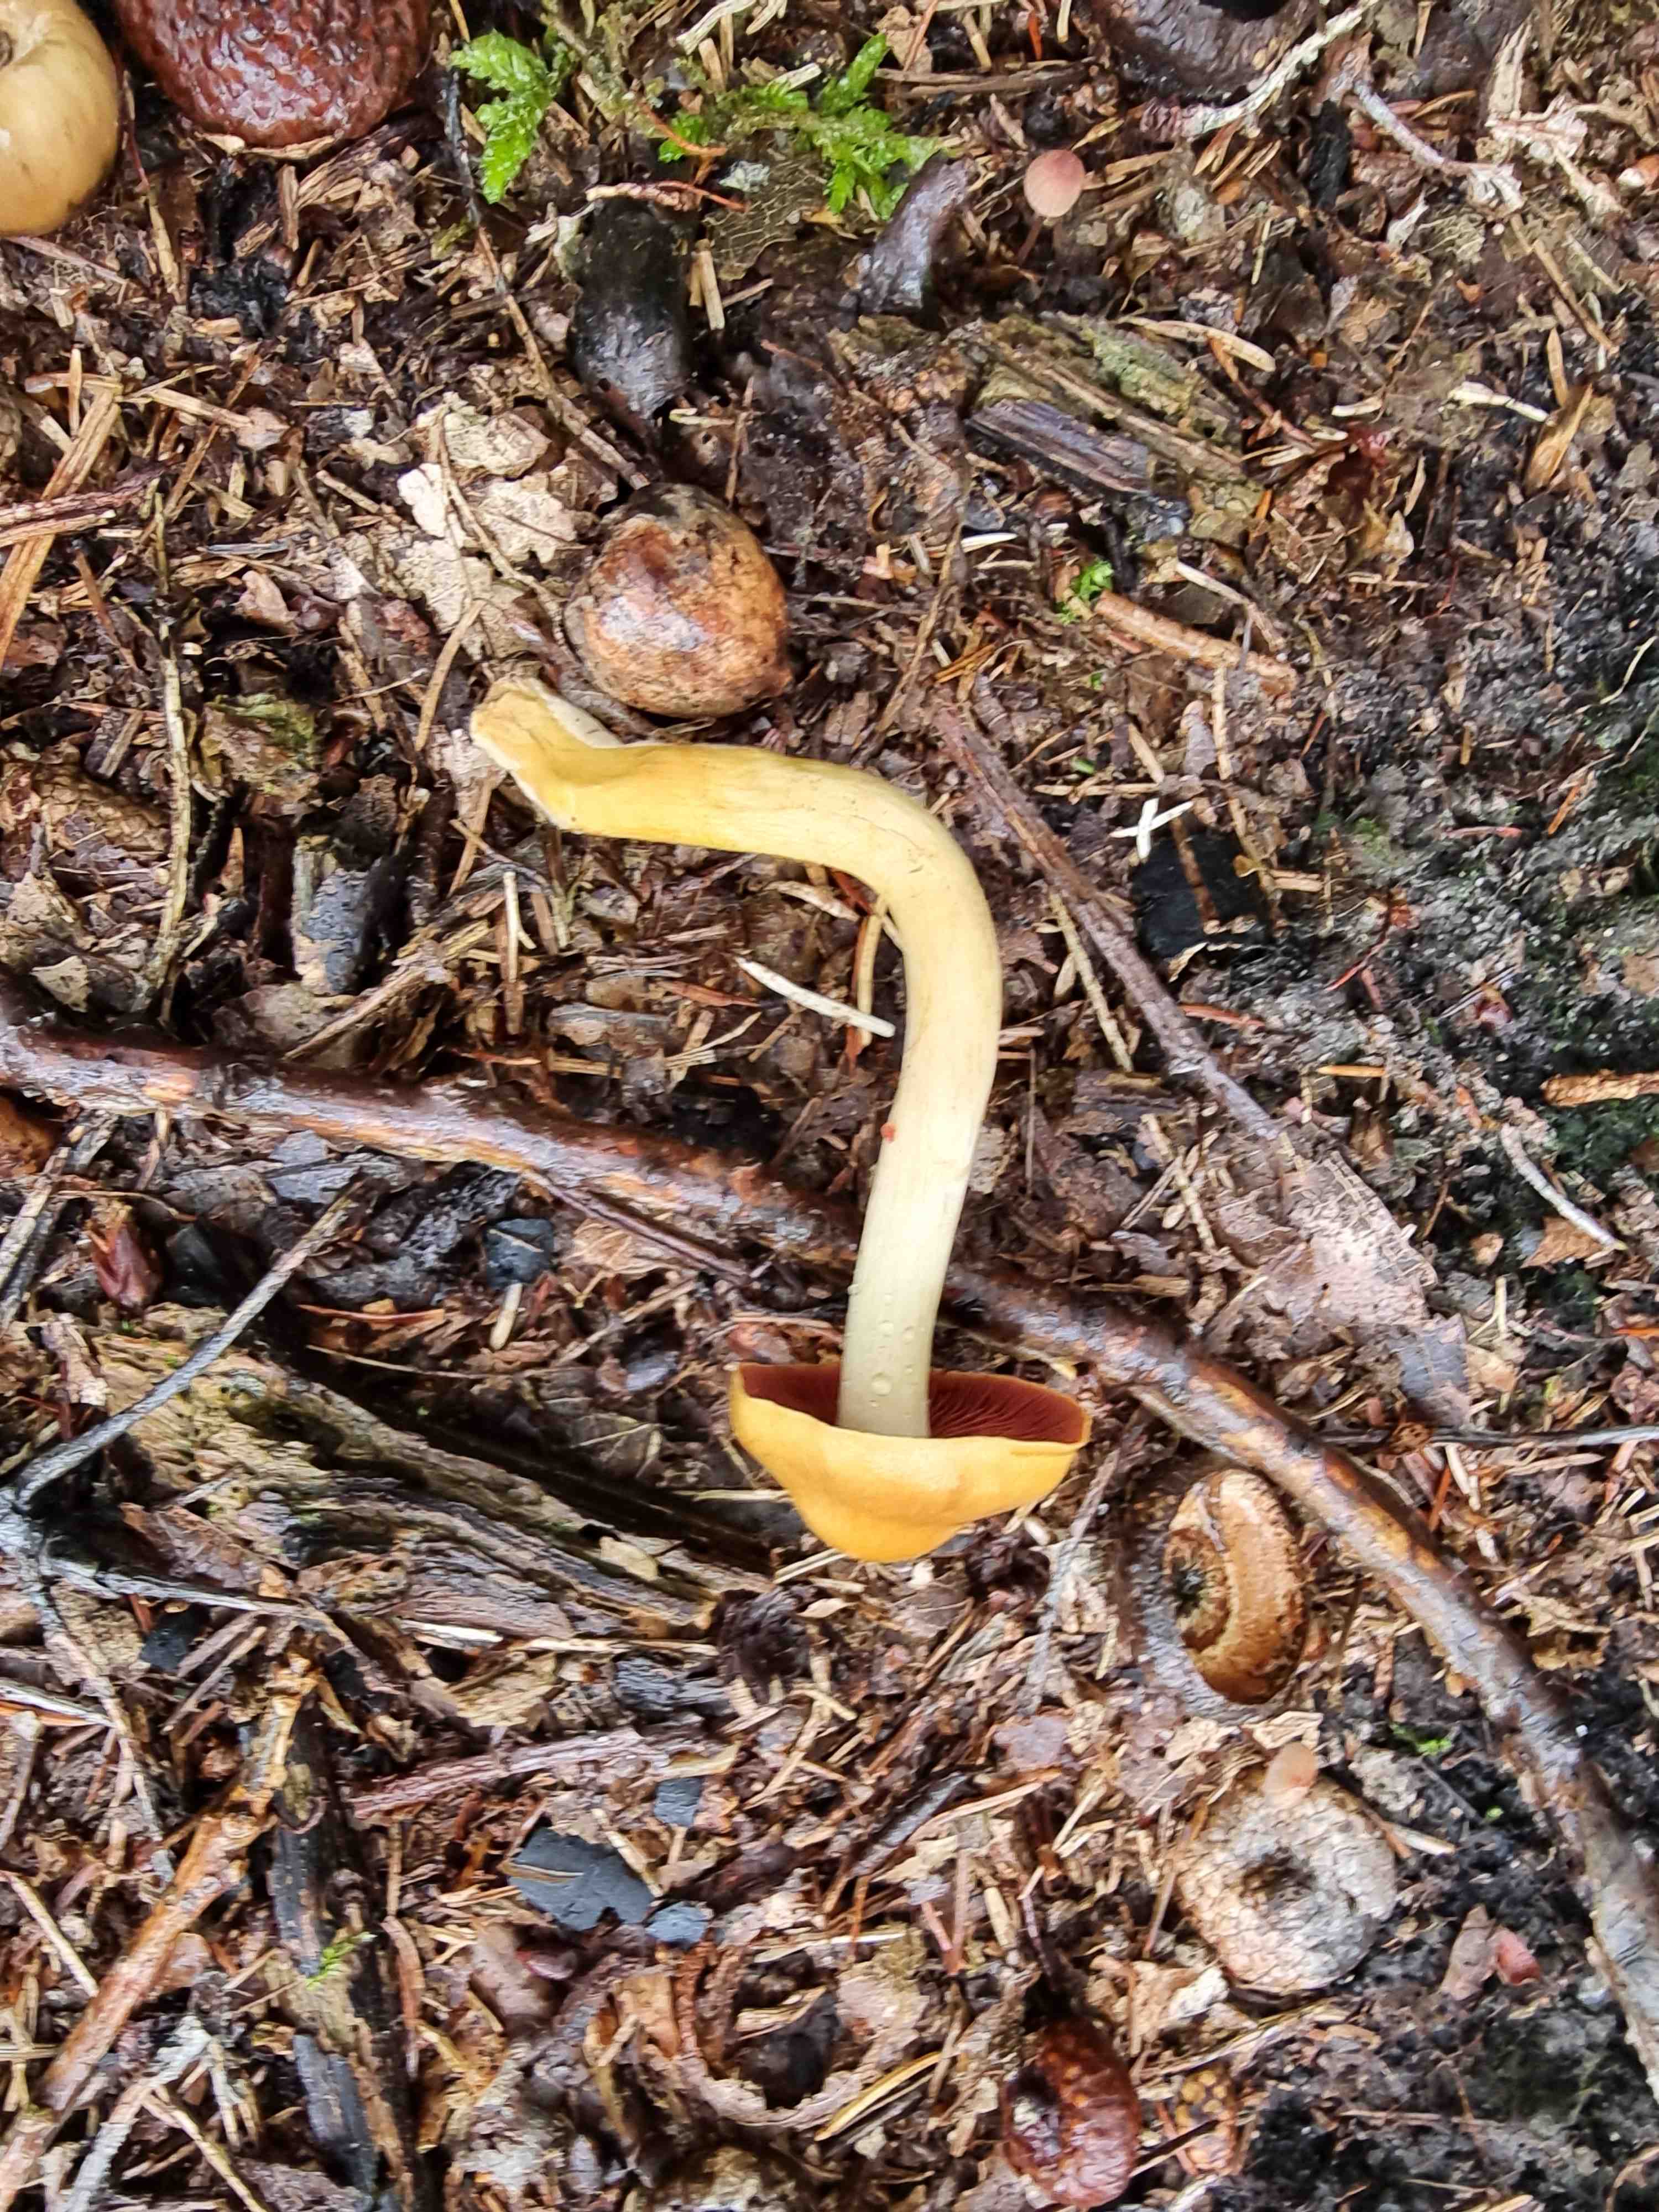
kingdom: Fungi
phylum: Basidiomycota
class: Agaricomycetes
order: Agaricales
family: Cortinariaceae
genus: Cortinarius
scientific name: Cortinarius
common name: cinnoberbladet slørhat
